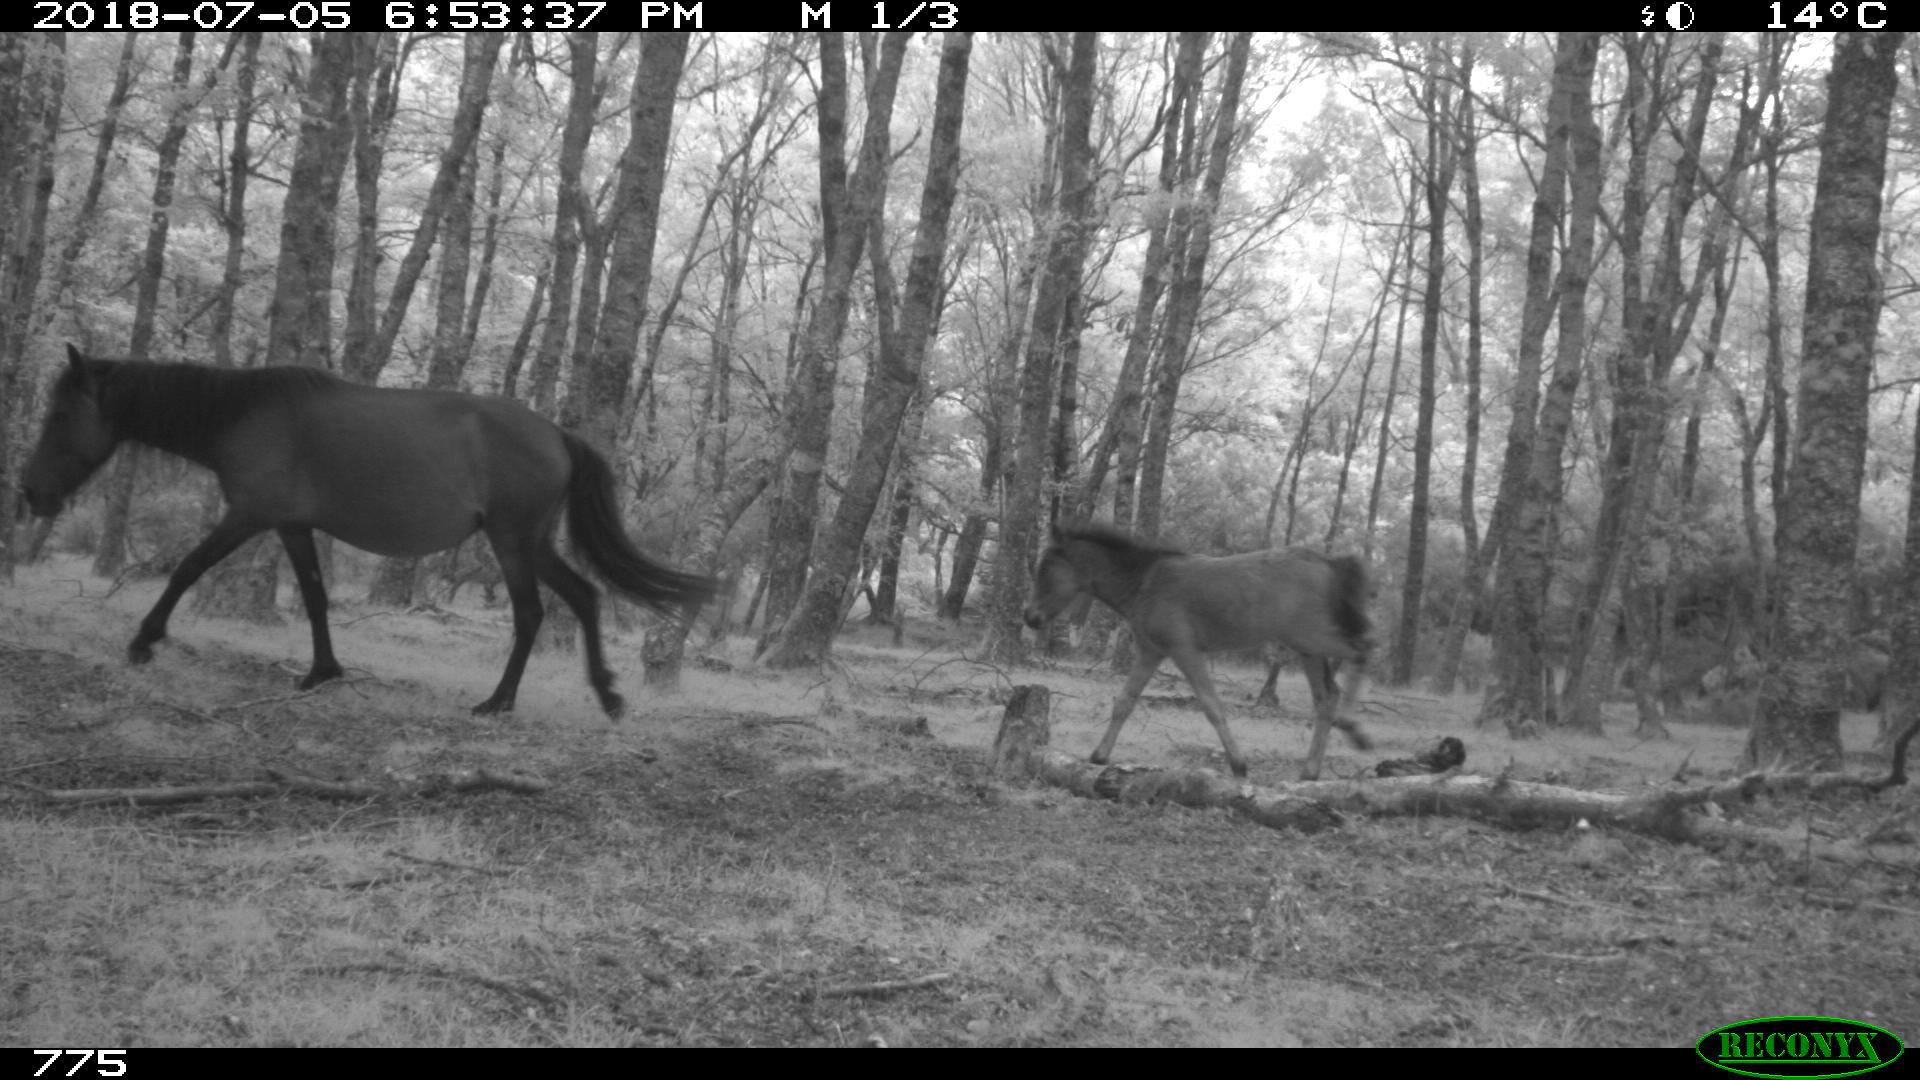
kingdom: Animalia
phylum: Chordata
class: Mammalia
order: Perissodactyla
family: Equidae
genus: Equus
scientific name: Equus caballus
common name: Horse
